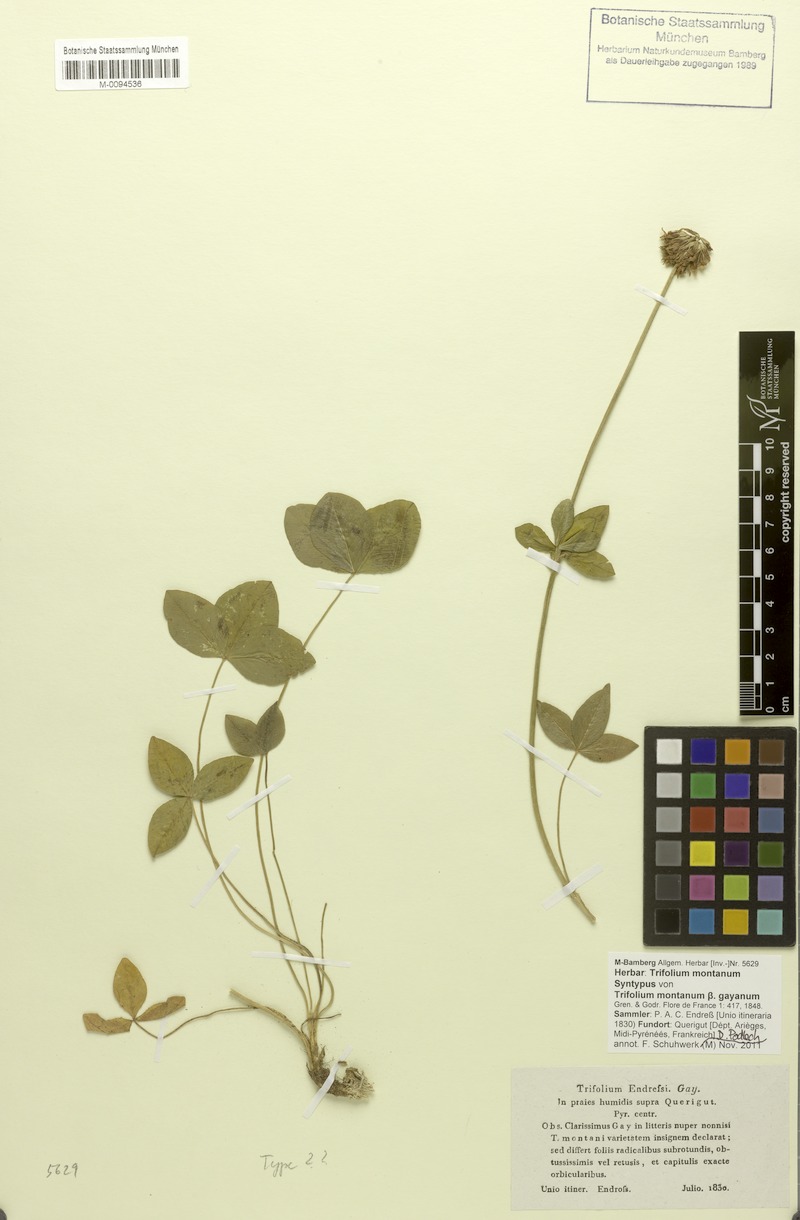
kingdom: Plantae
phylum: Tracheophyta
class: Magnoliopsida
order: Fabales
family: Fabaceae
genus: Trifolium
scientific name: Trifolium montanum
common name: Mountain clover
